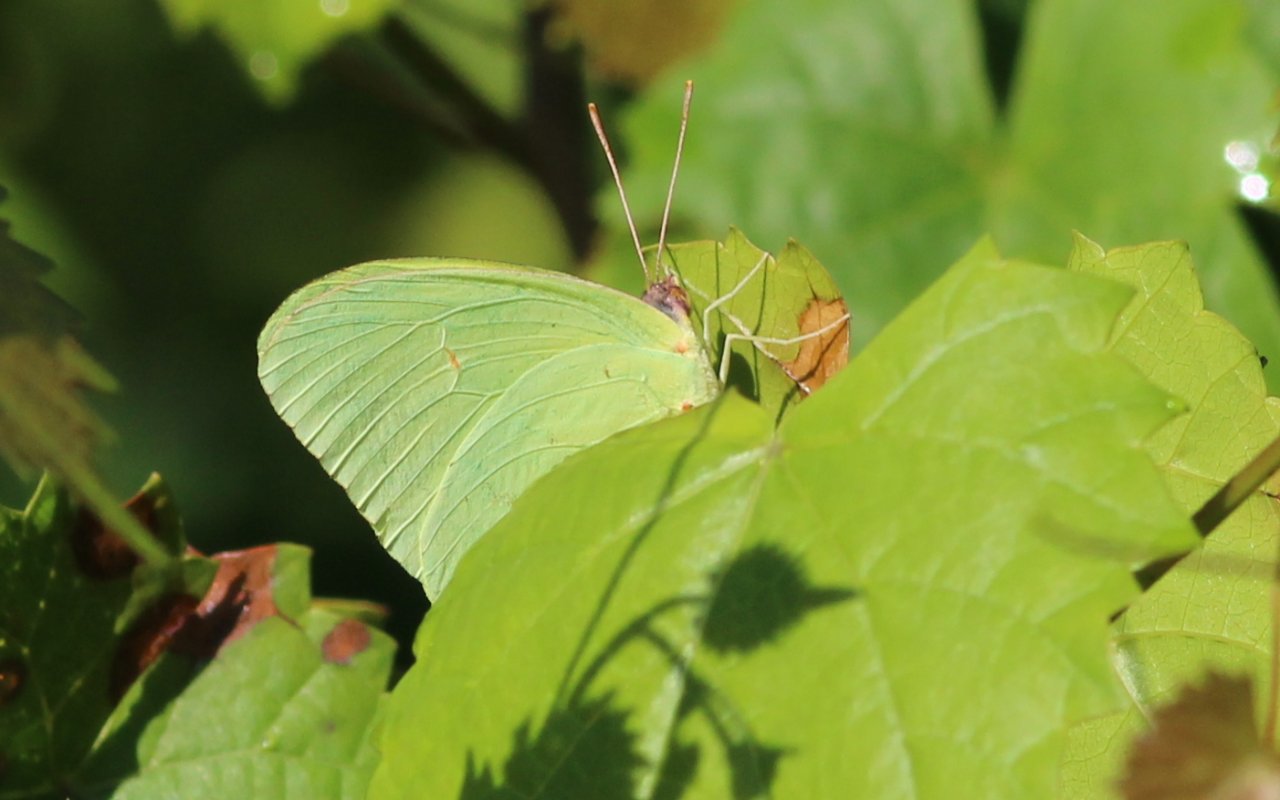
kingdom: Animalia
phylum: Arthropoda
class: Insecta
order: Lepidoptera
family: Pieridae
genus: Phoebis
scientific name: Phoebis sennae
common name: Cloudless Sulphur
